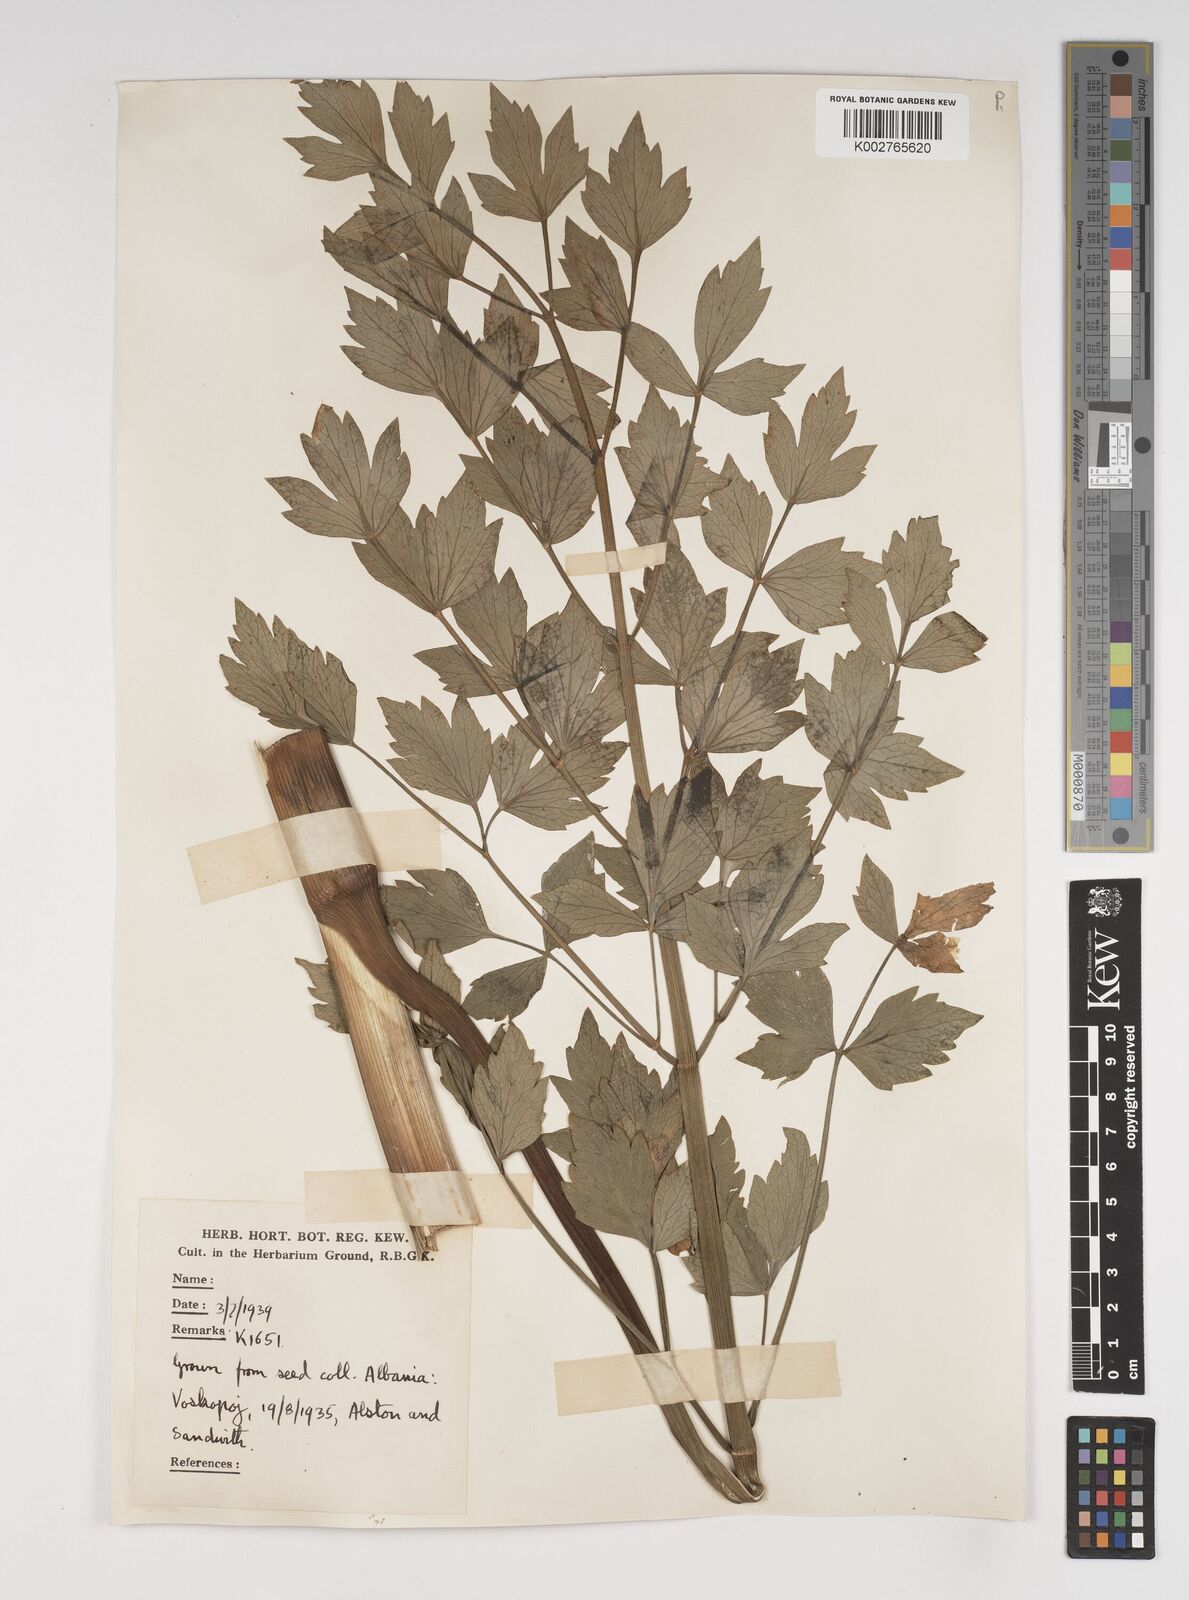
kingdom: Plantae
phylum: Tracheophyta
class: Magnoliopsida
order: Apiales
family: Apiaceae
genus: Levisticum
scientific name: Levisticum officinale
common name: Lovage
